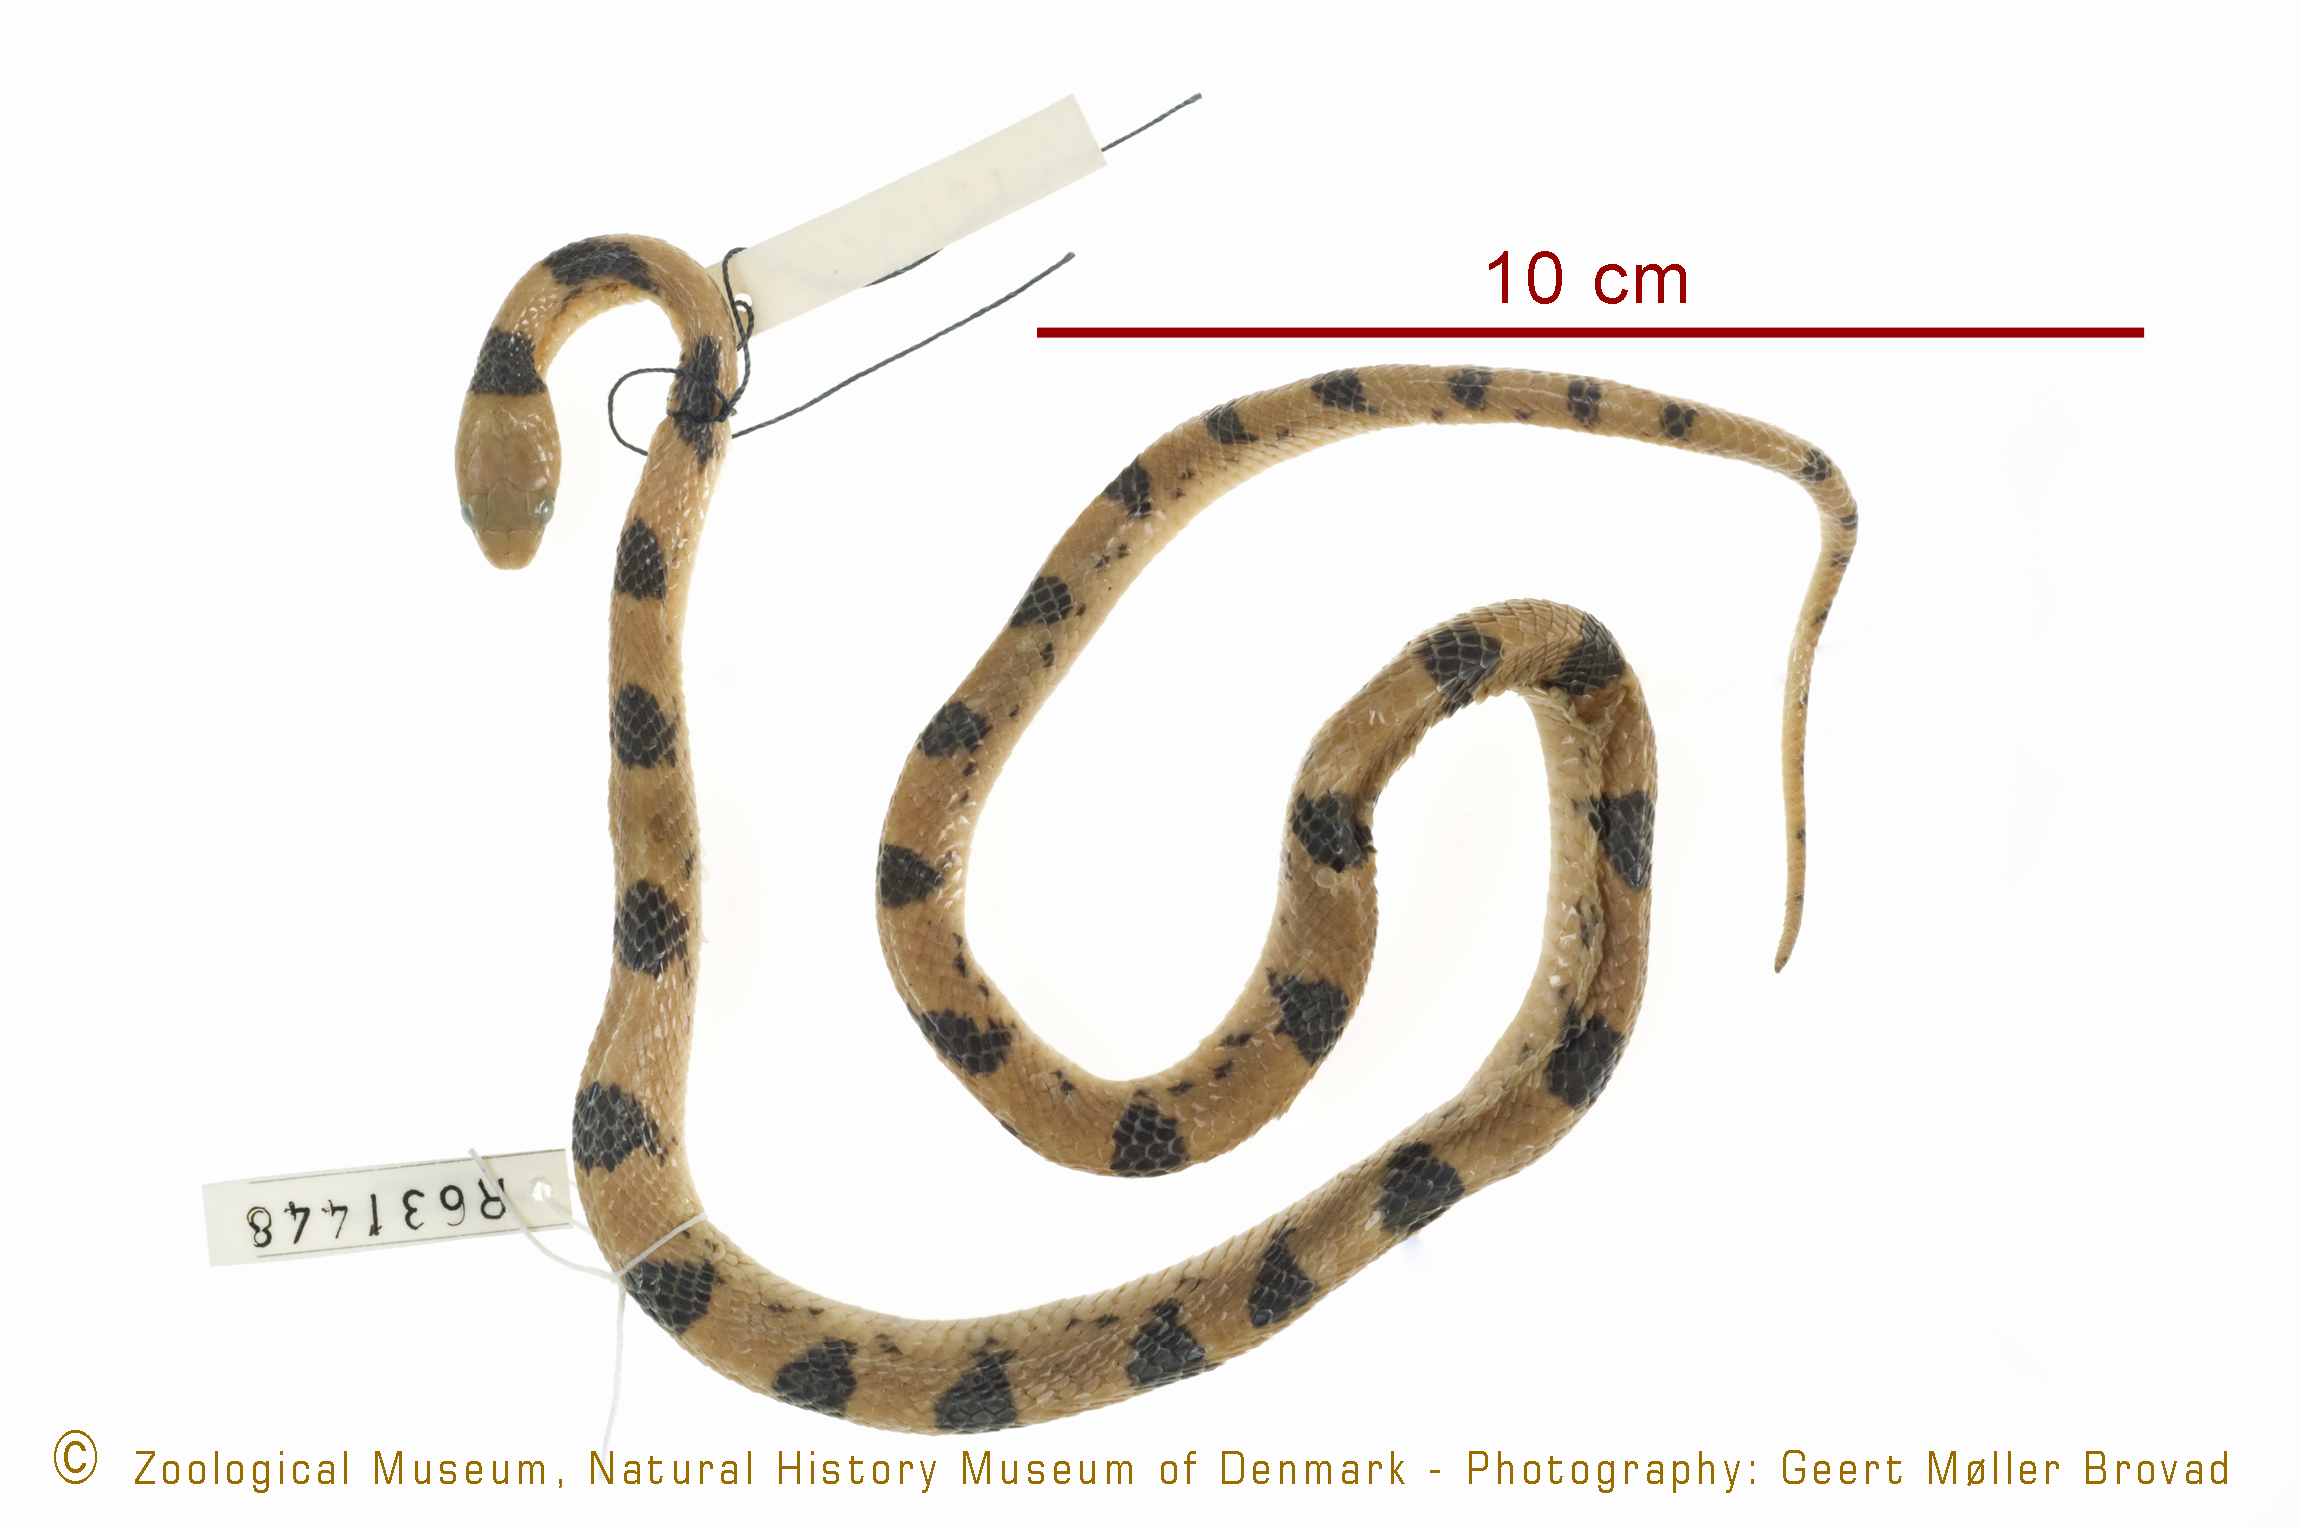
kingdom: Animalia
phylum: Chordata
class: Squamata
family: Colubridae
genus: Telescopus
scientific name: Telescopus
